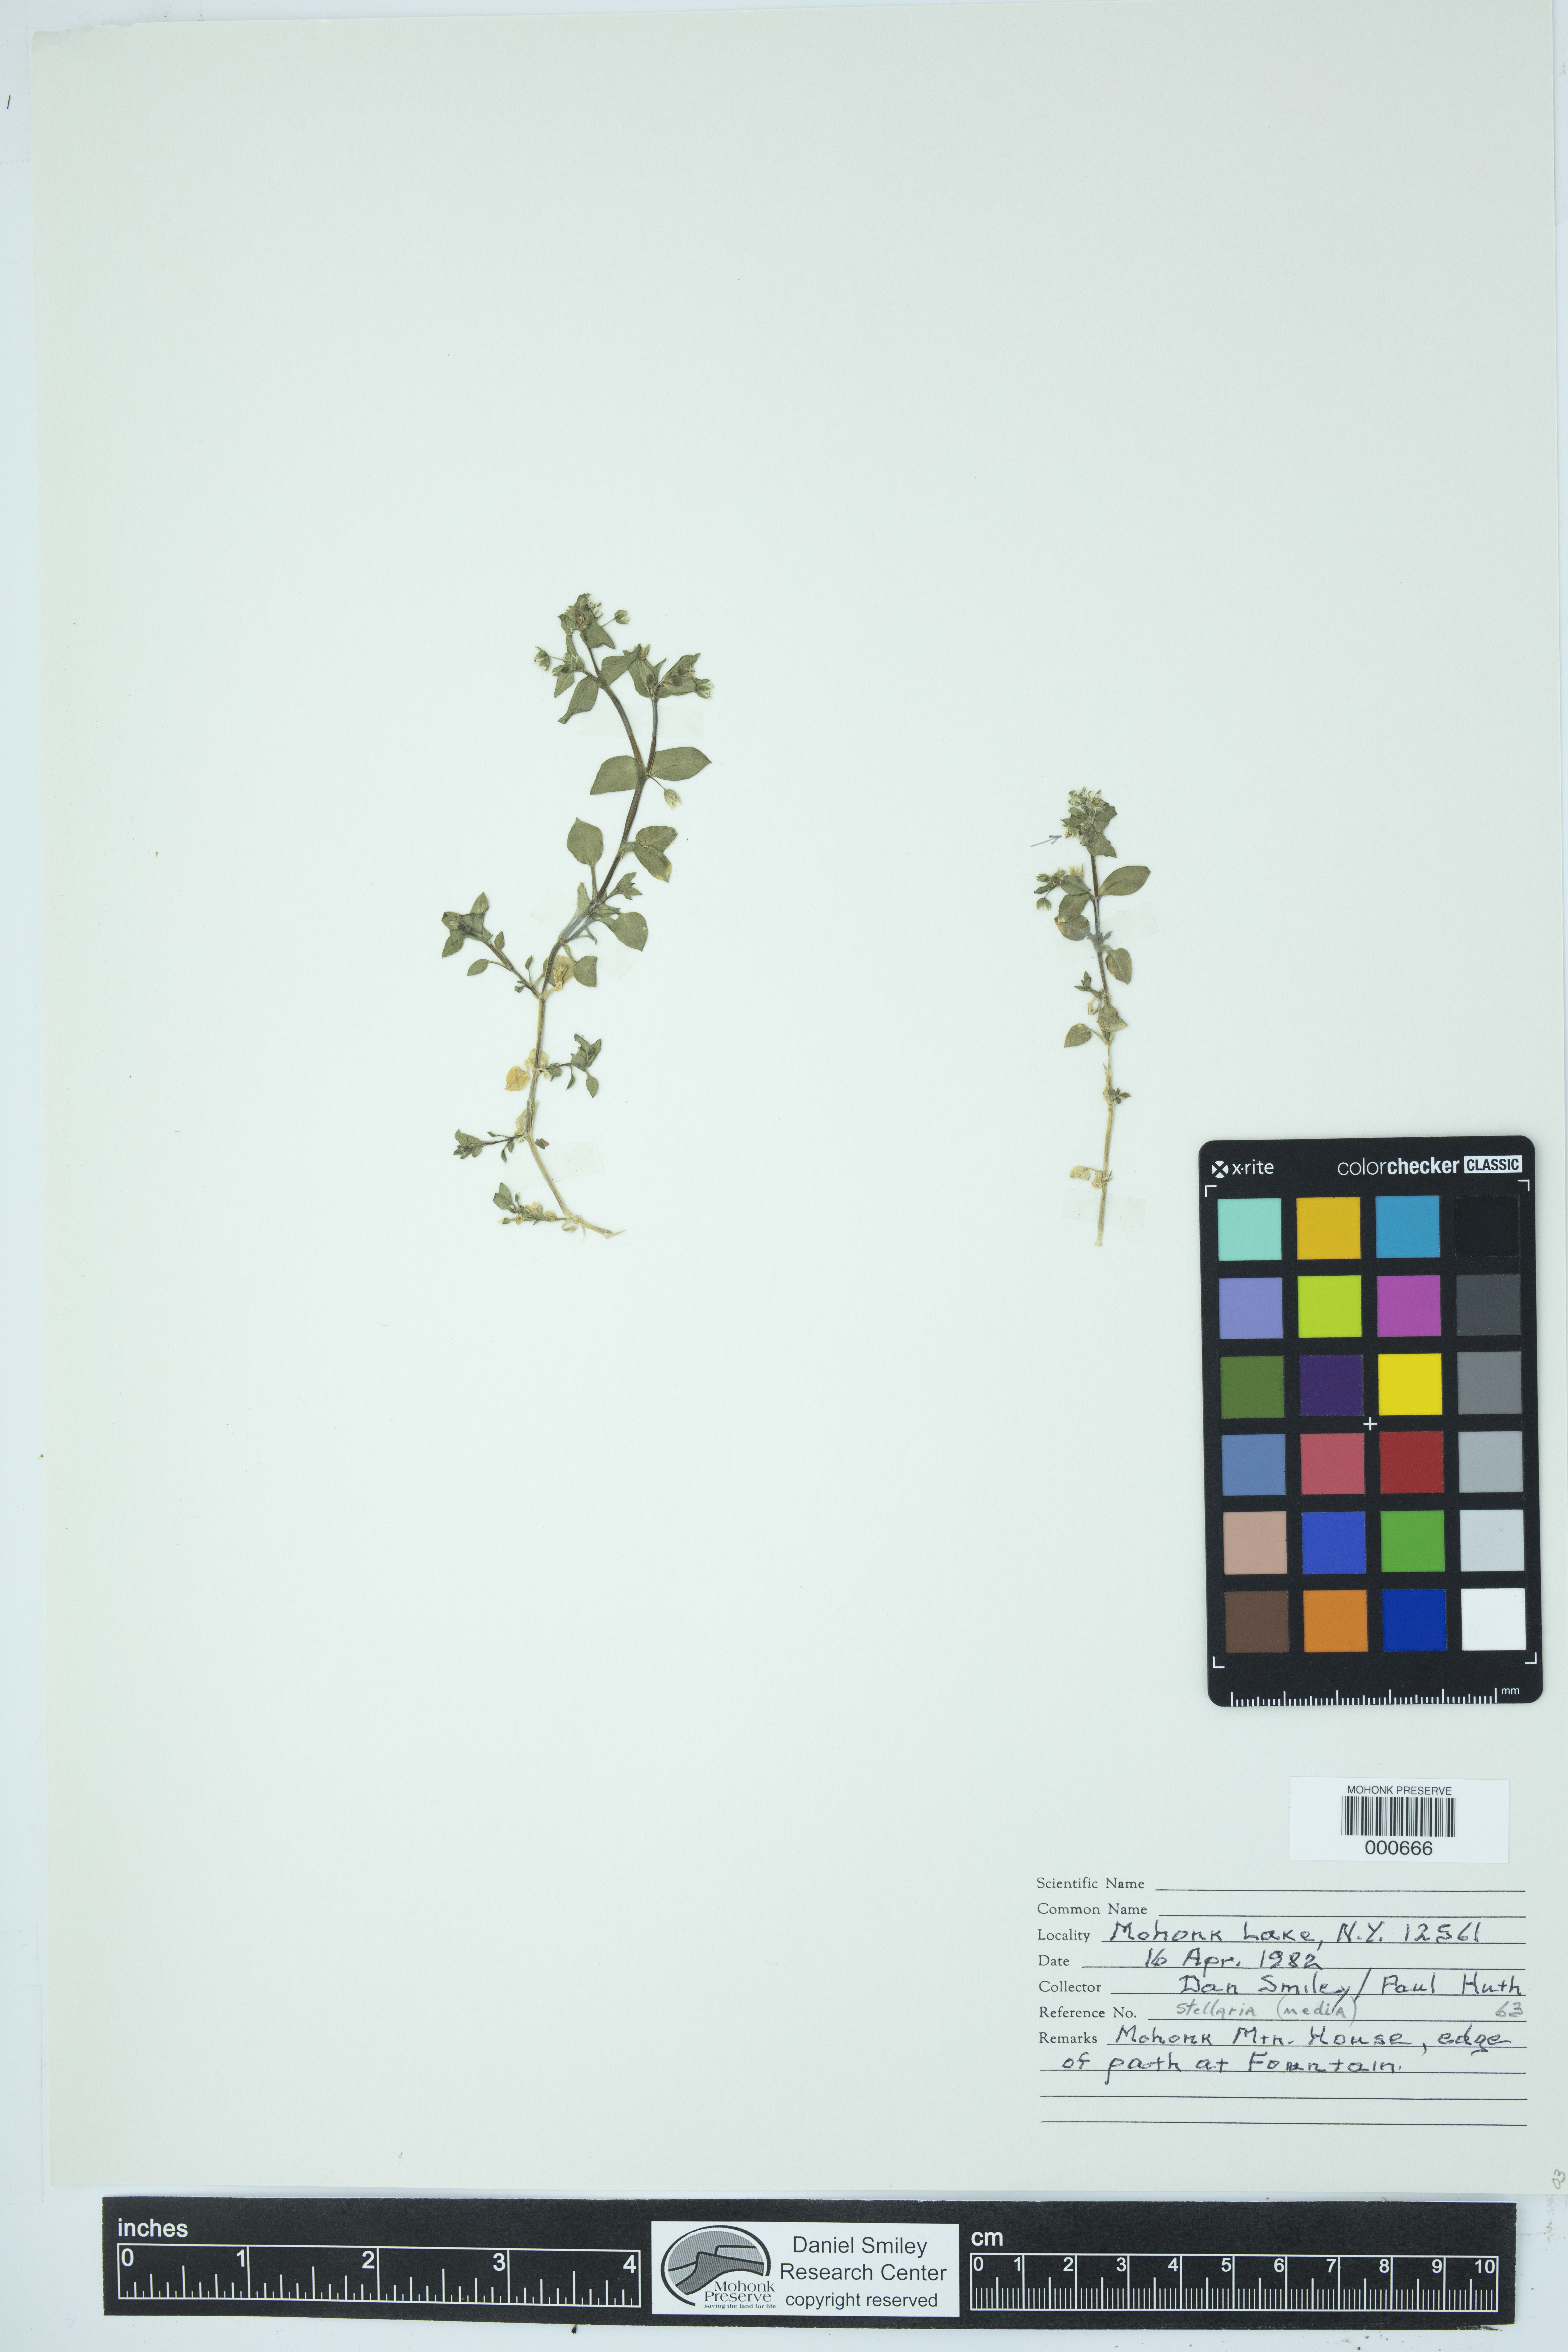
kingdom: Plantae
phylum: Tracheophyta
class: Magnoliopsida
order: Caryophyllales
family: Caryophyllaceae
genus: Stellaria
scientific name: Stellaria media
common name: Common chickweed
